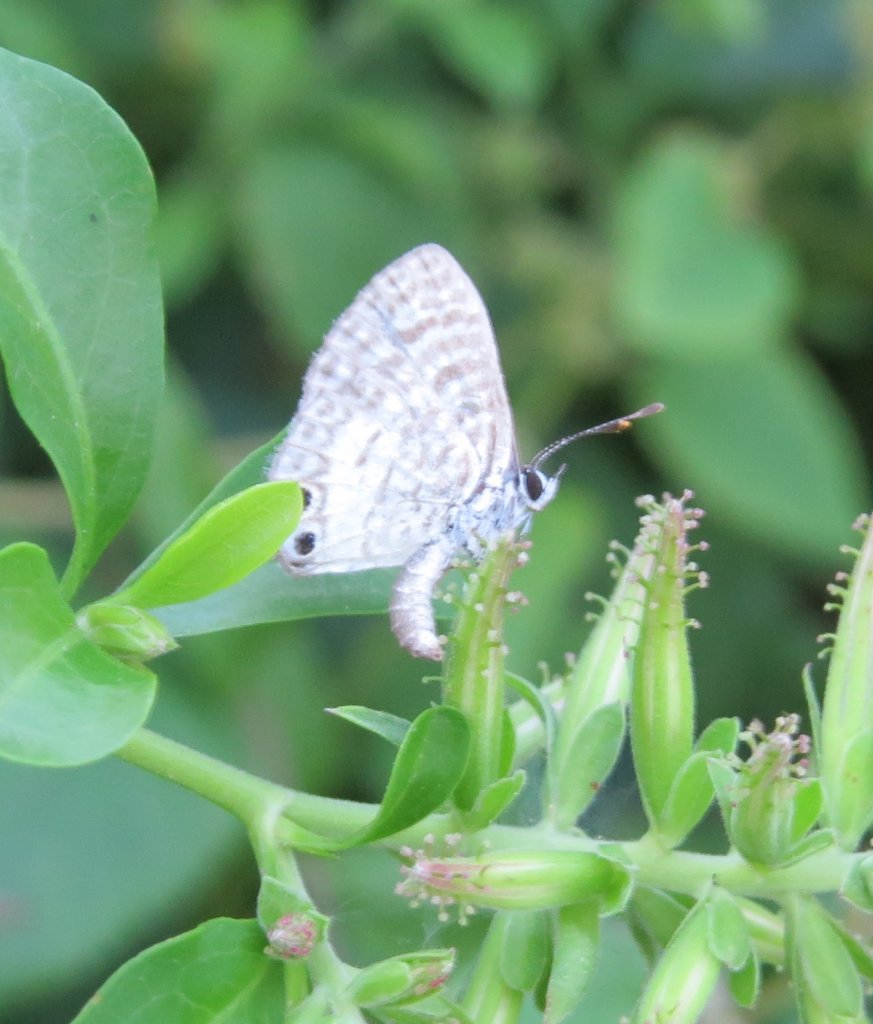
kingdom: Animalia
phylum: Arthropoda
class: Insecta
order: Lepidoptera
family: Lycaenidae
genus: Leptotes
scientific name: Leptotes cassius
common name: Cassius Blue
